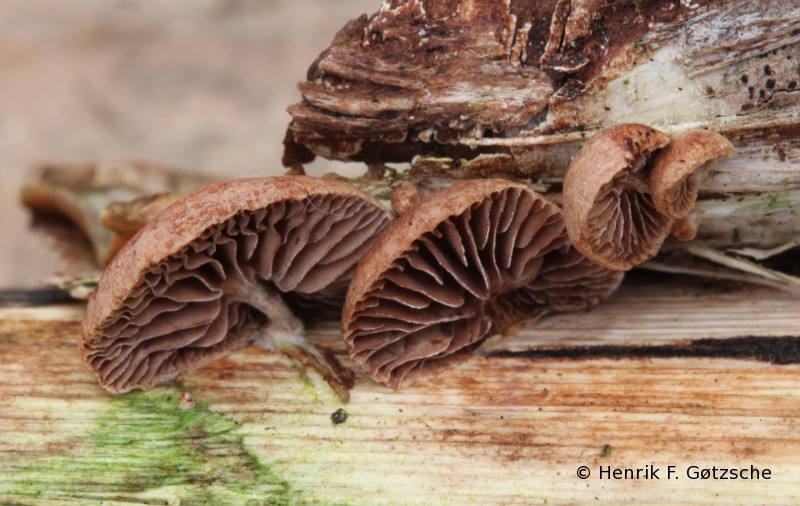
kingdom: Fungi
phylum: Basidiomycota
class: Agaricomycetes
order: Agaricales
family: Strophariaceae
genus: Deconica
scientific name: Deconica horizontalis
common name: ved-stråhat
